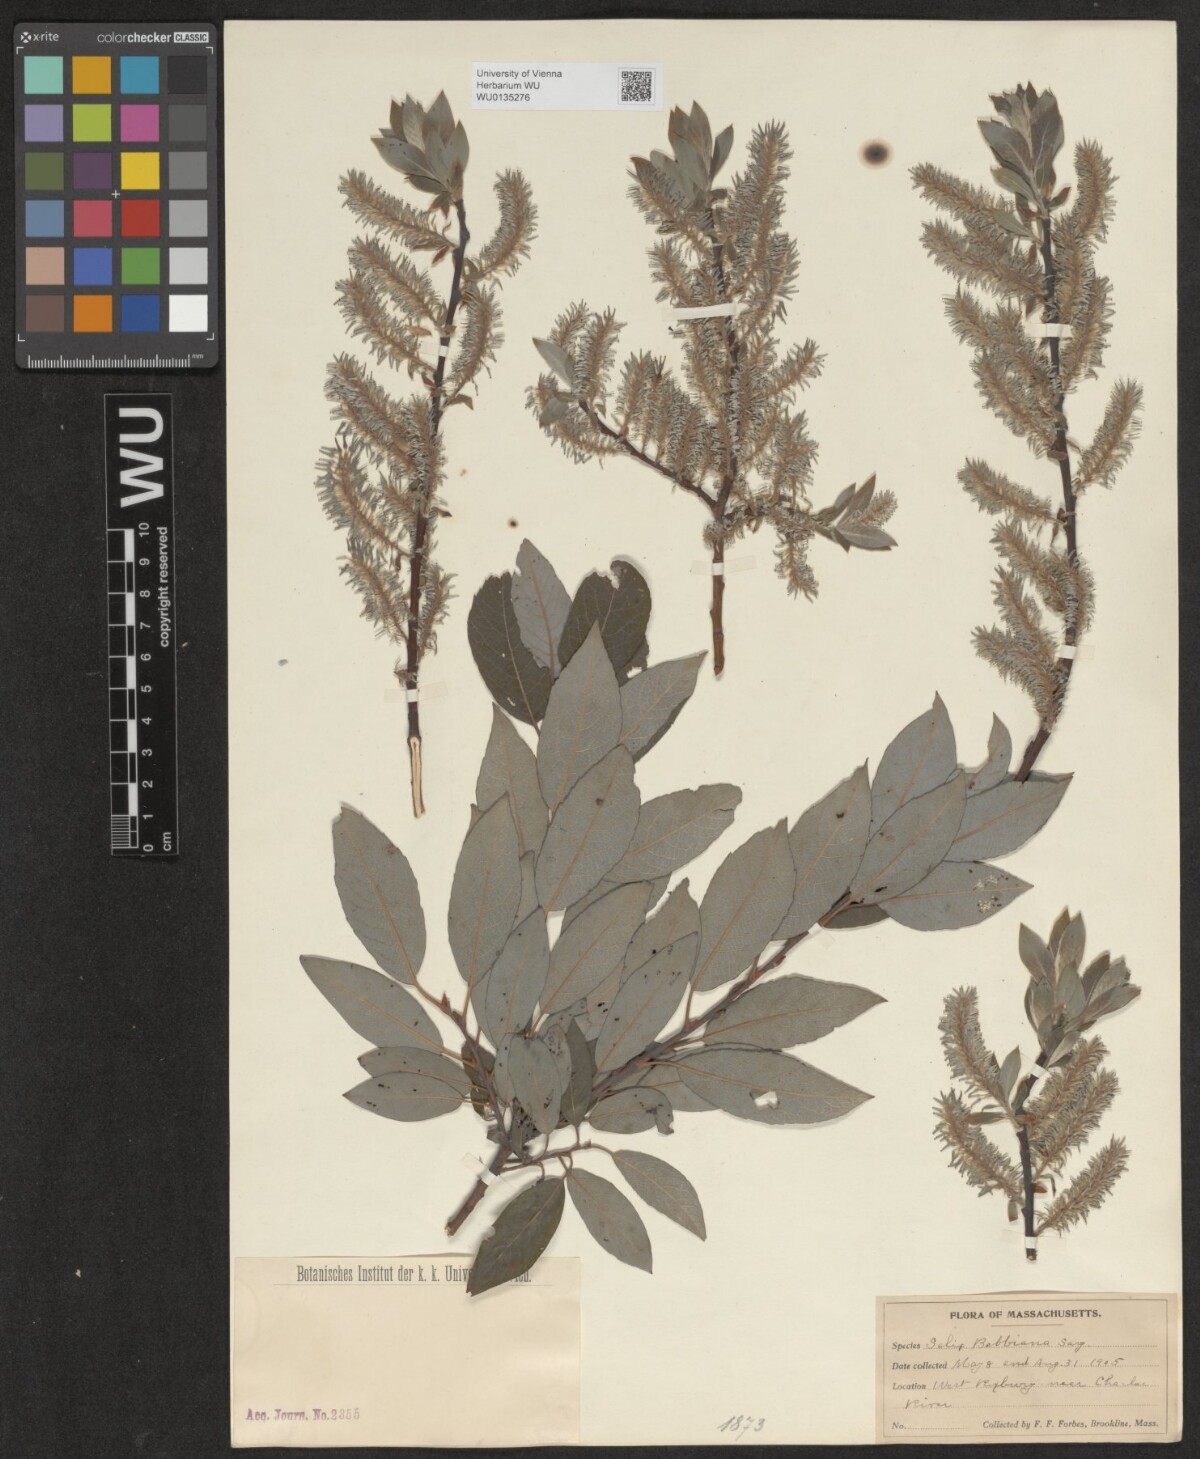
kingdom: Plantae
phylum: Tracheophyta
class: Magnoliopsida
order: Malpighiales
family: Salicaceae
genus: Salix
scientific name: Salix bebbiana
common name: Bebb's willow
